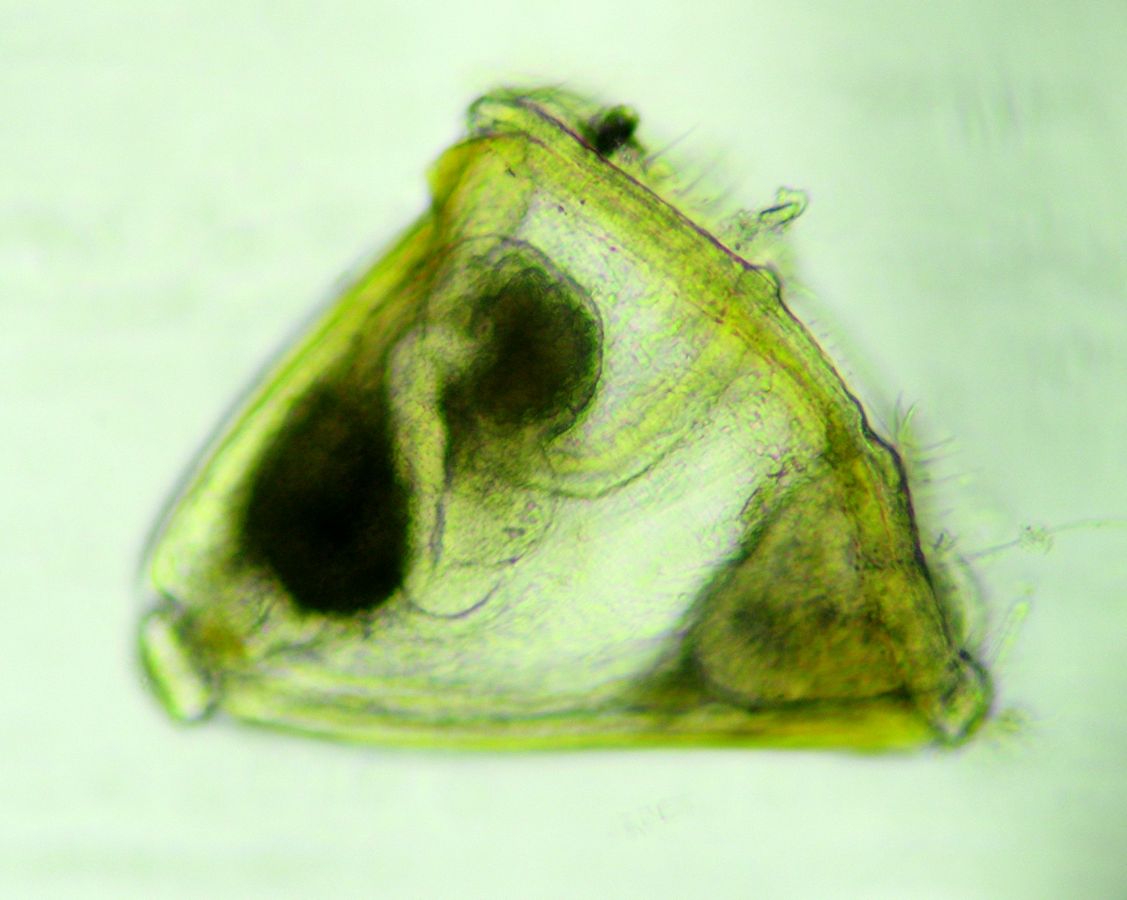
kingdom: Animalia
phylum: Bryozoa
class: Gymnolaemata
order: Cheilostomatida
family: Electridae
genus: Electra
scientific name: Electra pilosa
